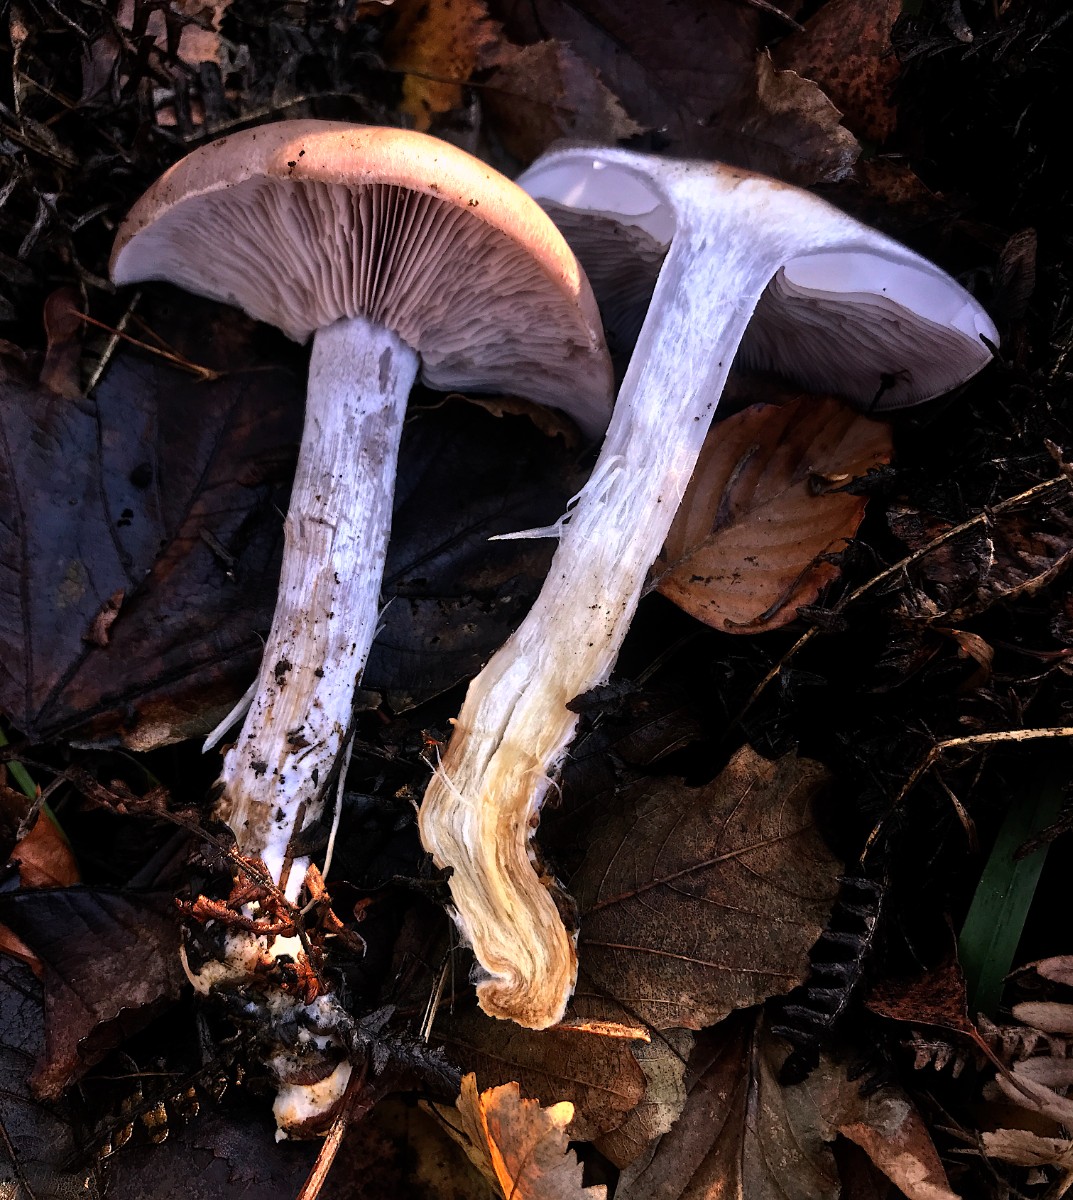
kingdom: Fungi
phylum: Basidiomycota
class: Agaricomycetes
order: Agaricales
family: Tricholomataceae
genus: Lepista
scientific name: Lepista nuda
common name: violet hekseringshat
